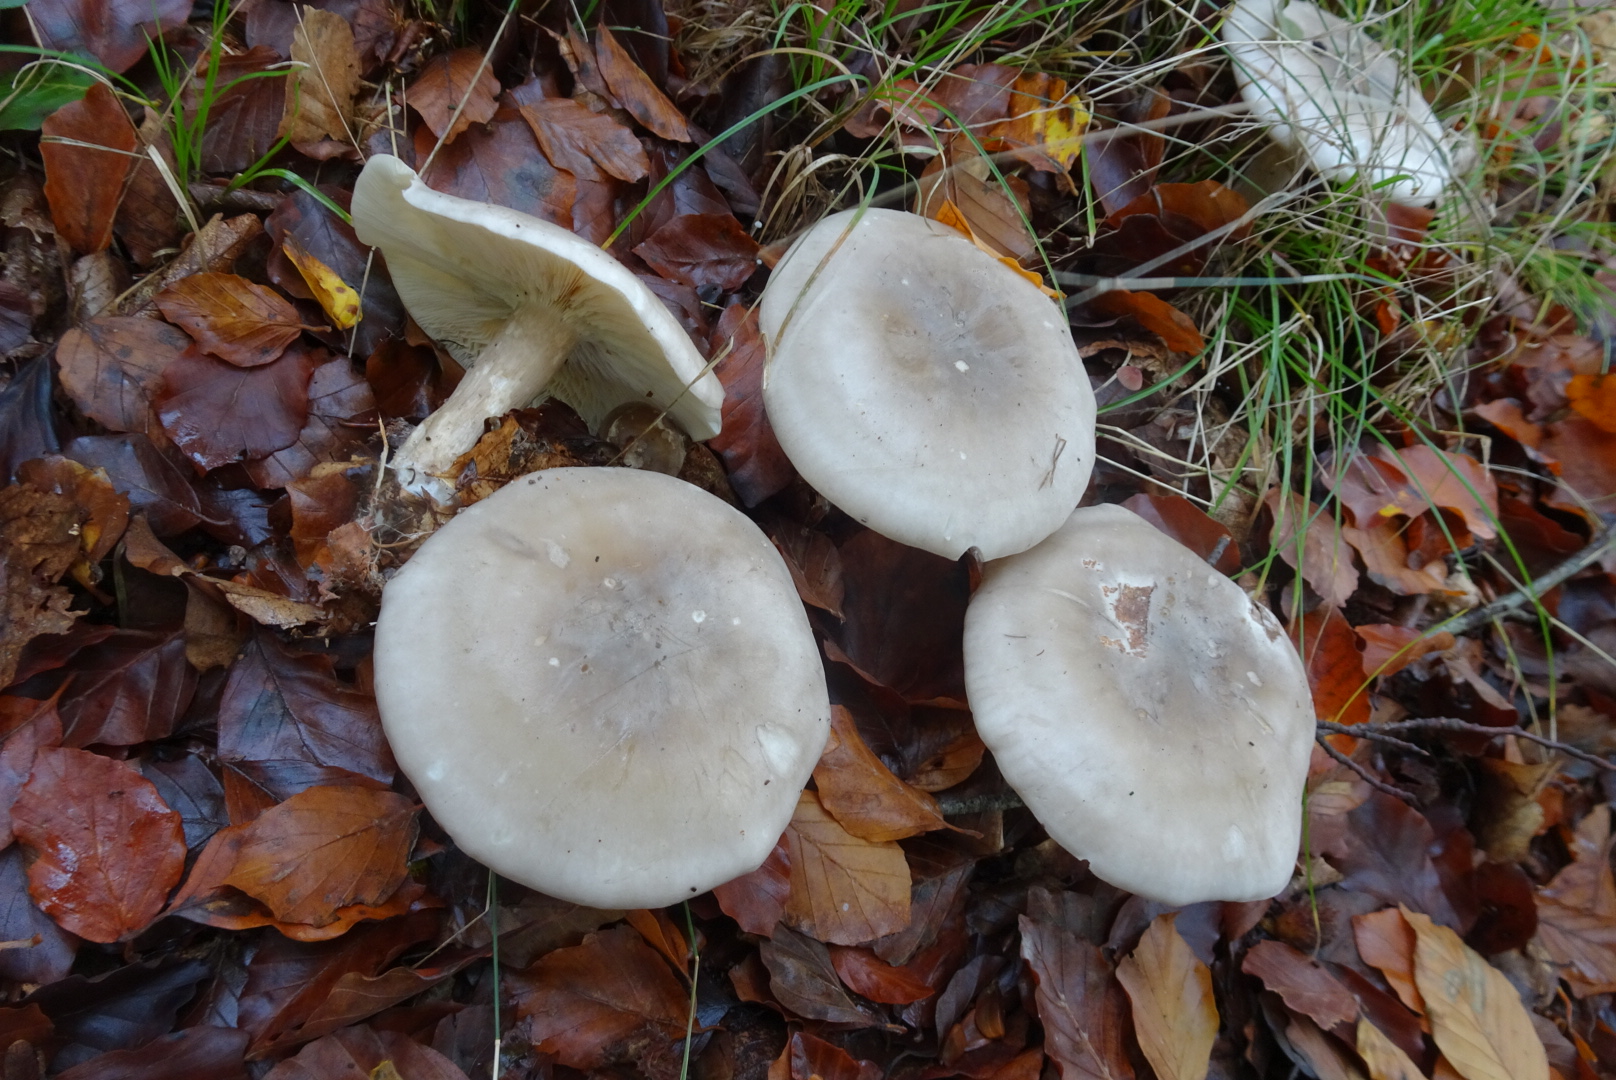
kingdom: Fungi
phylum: Basidiomycota
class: Agaricomycetes
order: Agaricales
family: Tricholomataceae
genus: Clitocybe
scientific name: Clitocybe nebularis
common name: tåge-tragthat
